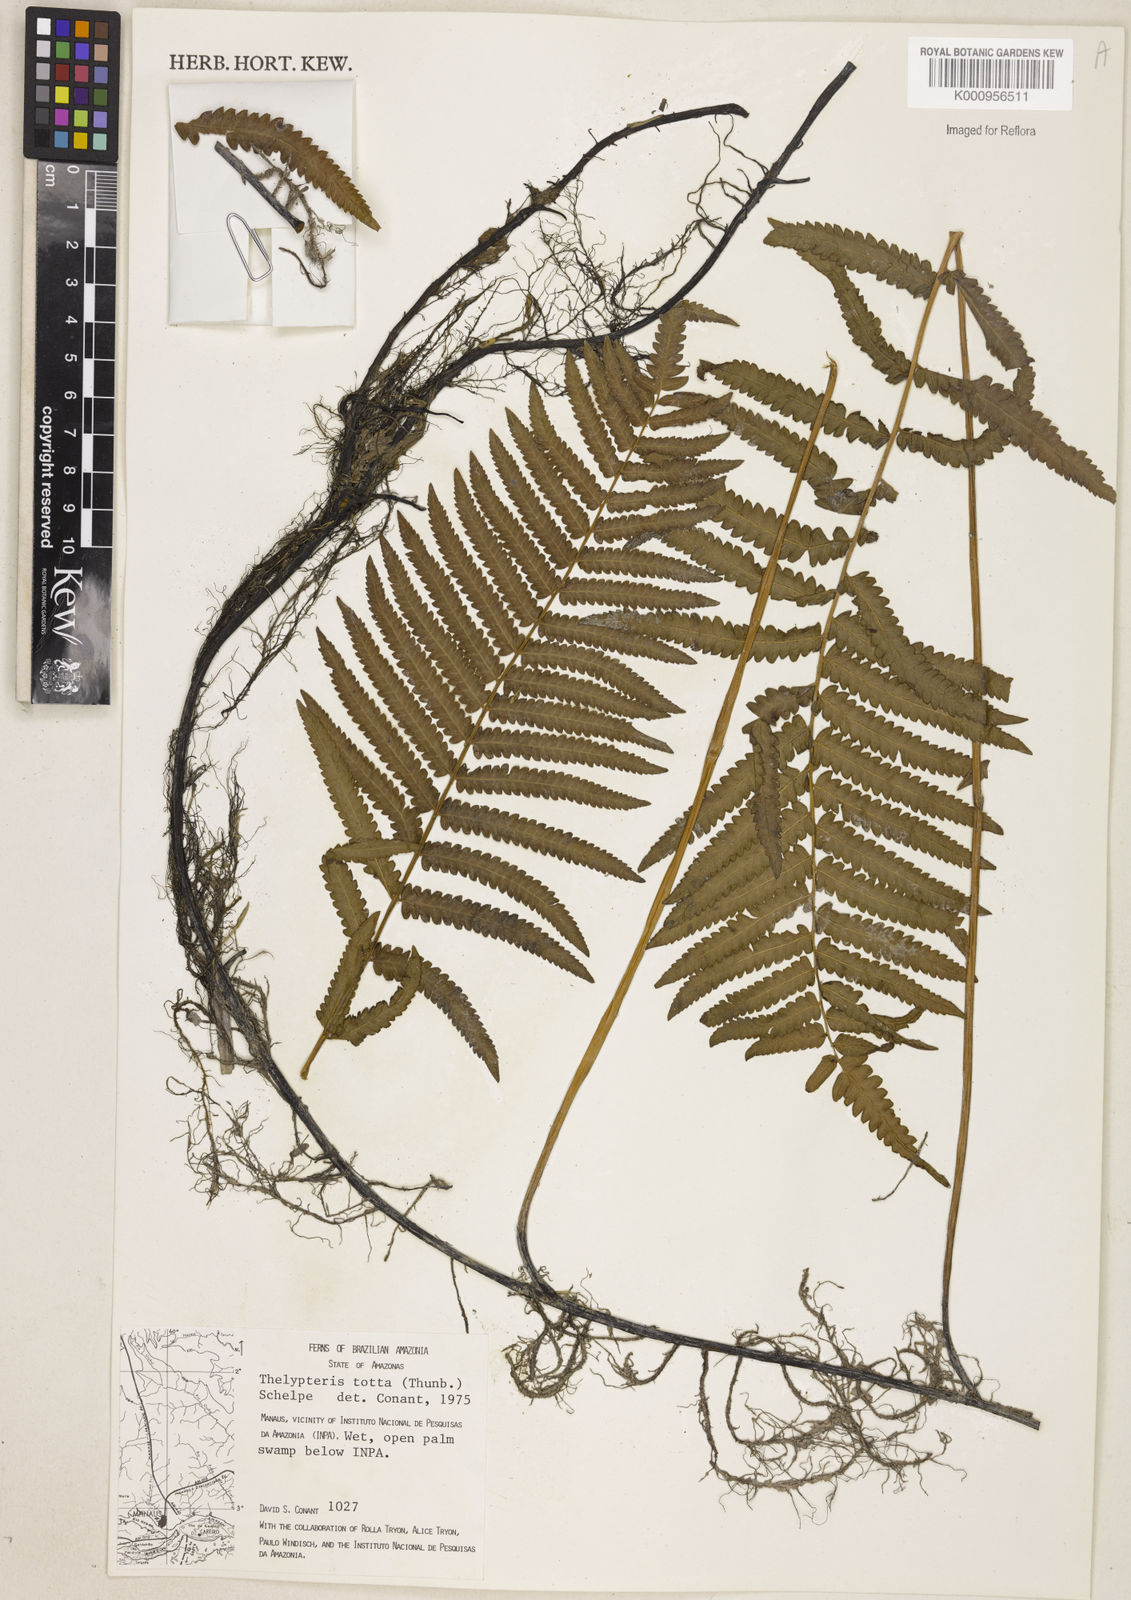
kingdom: Plantae
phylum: Tracheophyta
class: Polypodiopsida
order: Polypodiales
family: Thelypteridaceae
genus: Cyclosorus
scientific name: Cyclosorus interruptus
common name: Neke fern
